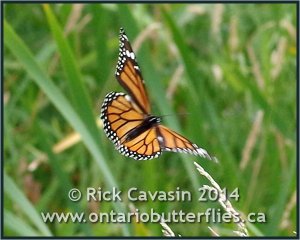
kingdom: Animalia
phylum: Arthropoda
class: Insecta
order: Lepidoptera
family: Nymphalidae
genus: Danaus
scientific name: Danaus plexippus
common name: Monarch
